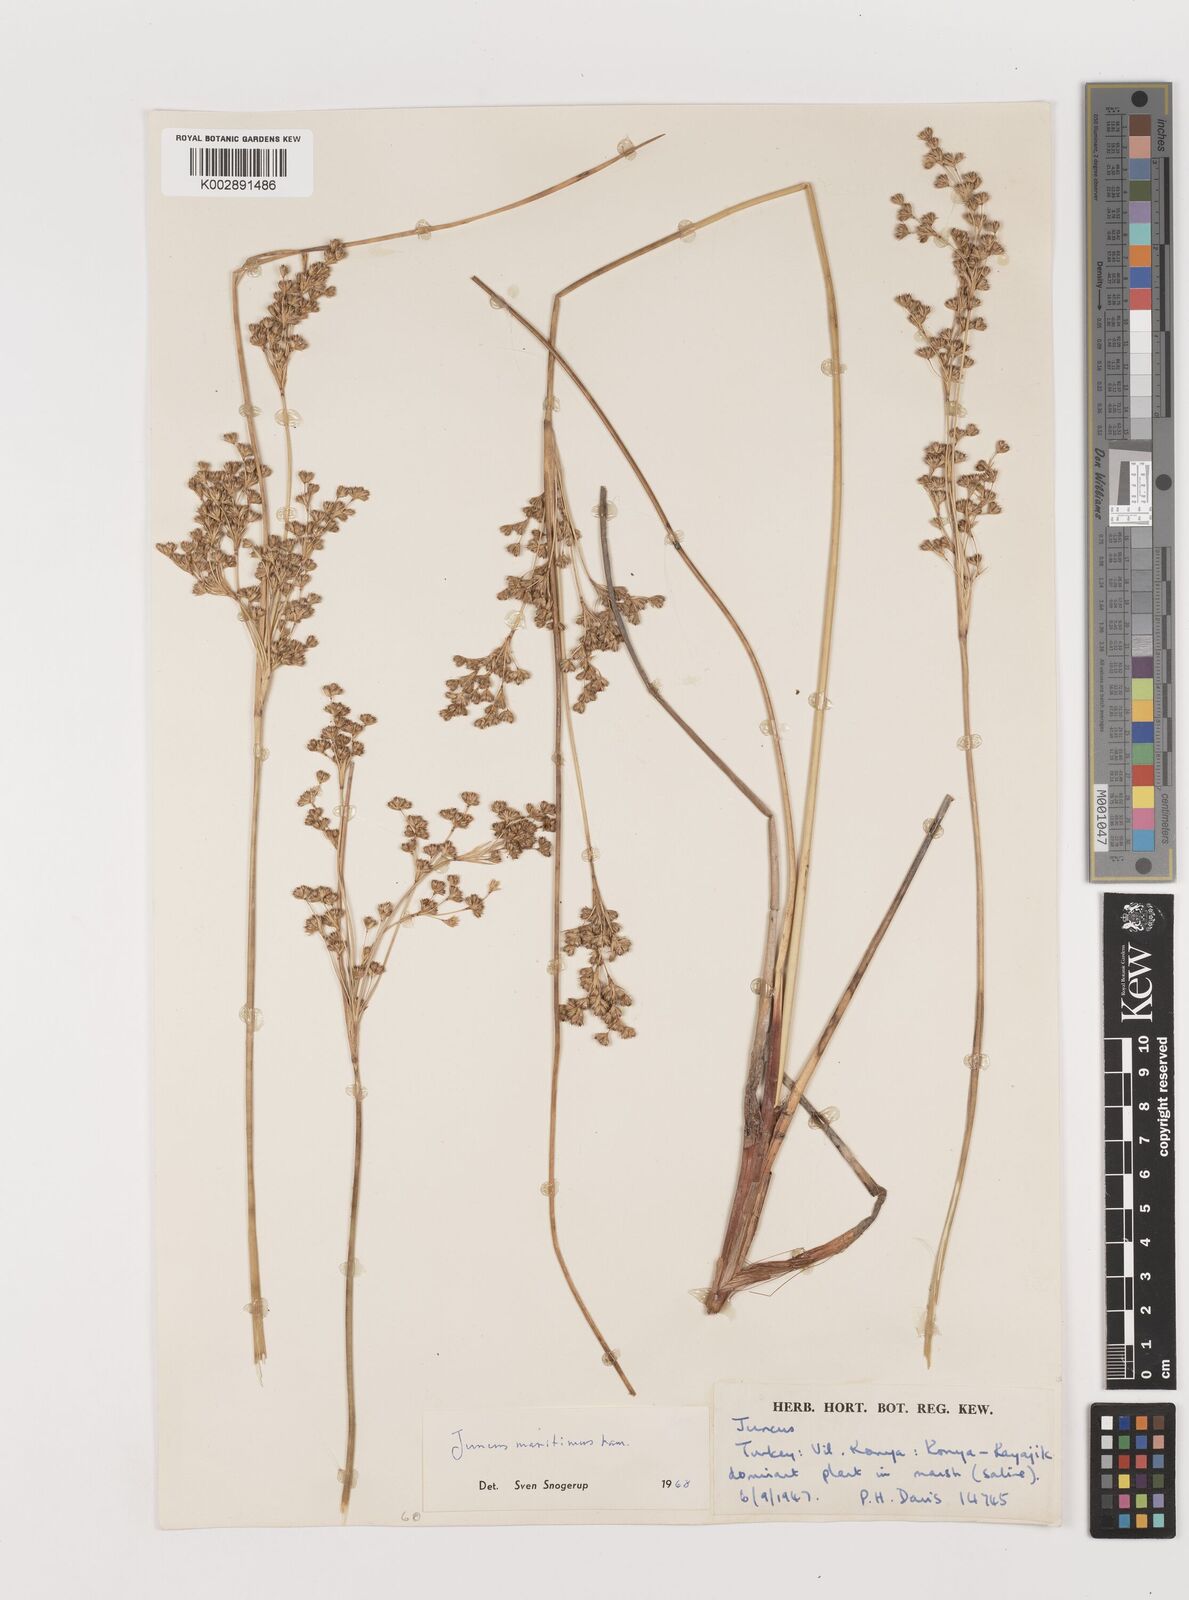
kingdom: Plantae
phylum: Tracheophyta
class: Liliopsida
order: Poales
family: Juncaceae
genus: Juncus
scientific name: Juncus maritimus
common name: Sea rush
